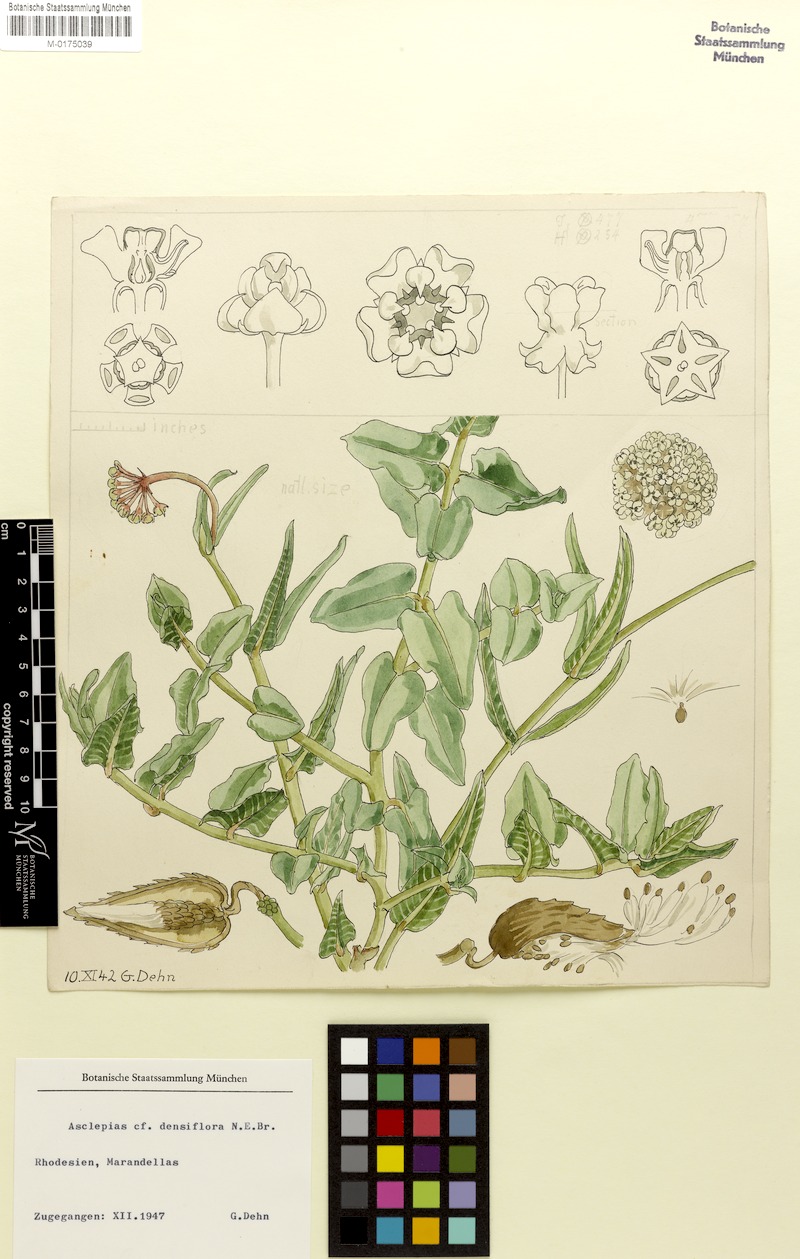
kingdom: Plantae
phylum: Tracheophyta
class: Magnoliopsida
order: Gentianales
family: Apocynaceae
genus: Asclepias
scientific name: Asclepias densiflora
